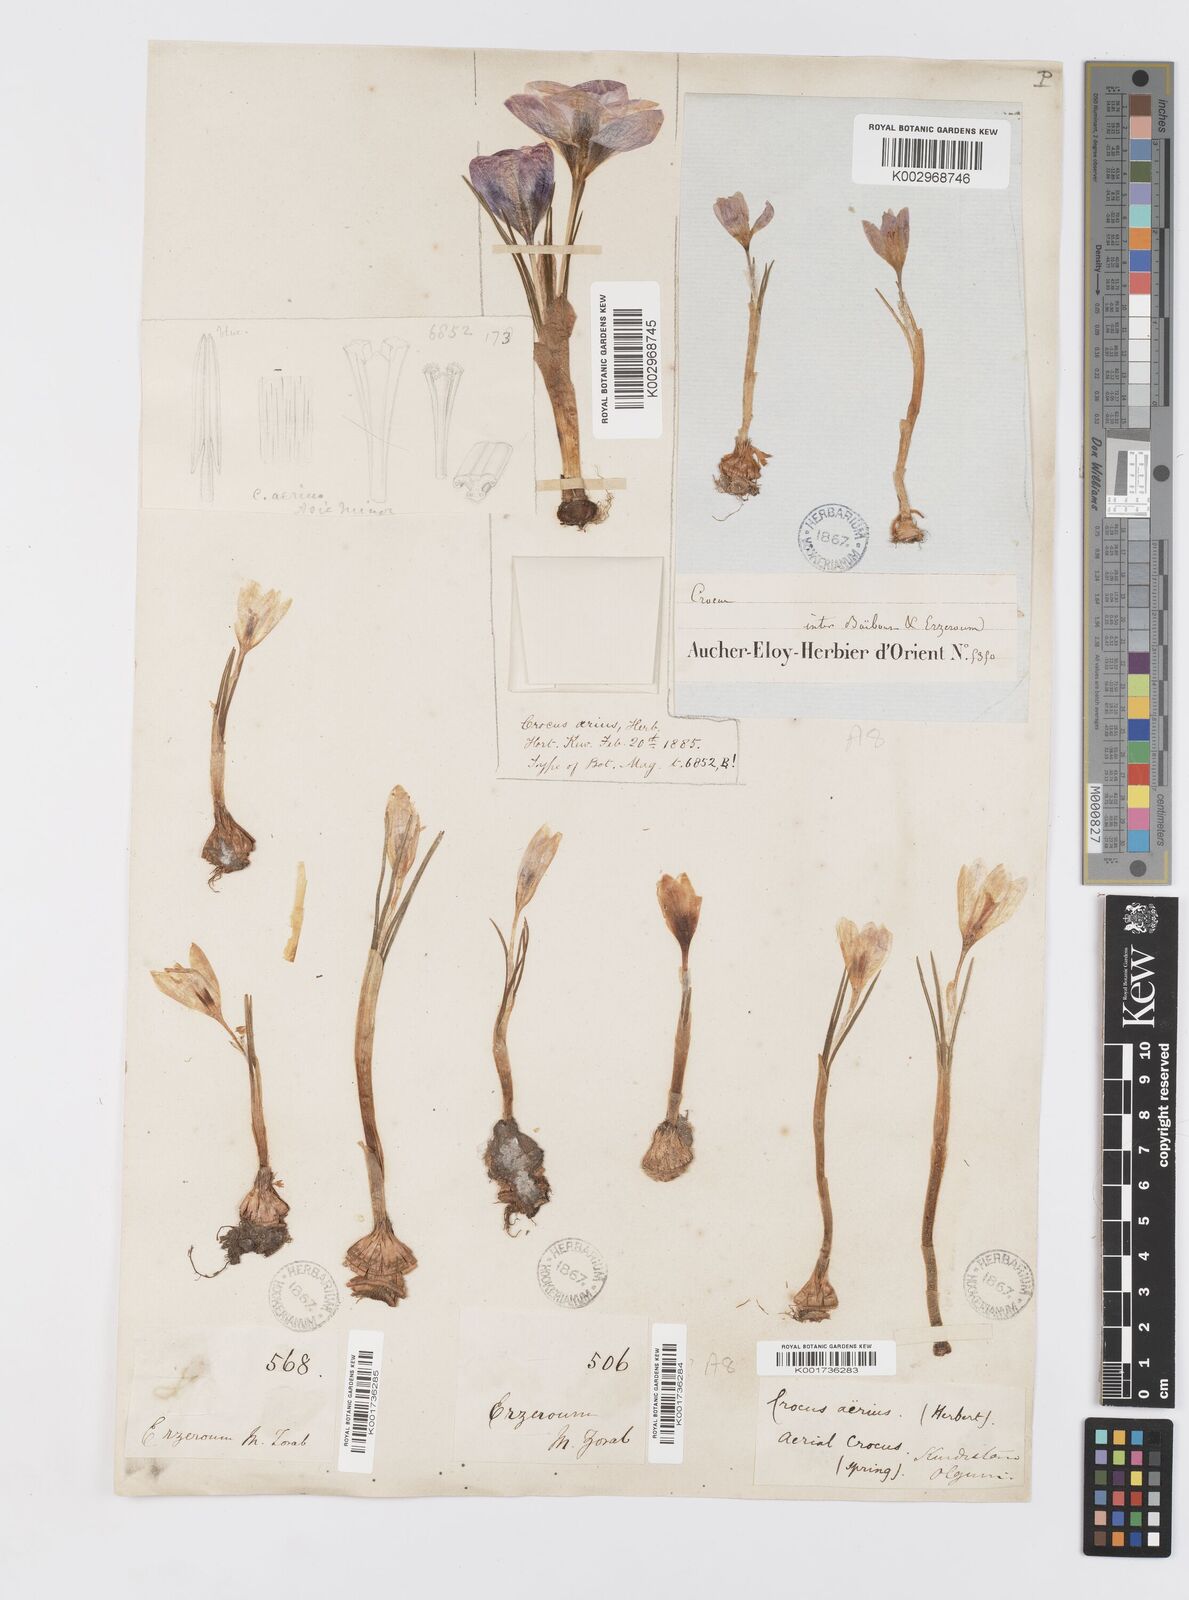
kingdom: Plantae
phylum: Tracheophyta
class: Liliopsida
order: Asparagales
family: Iridaceae
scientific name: Iridaceae
